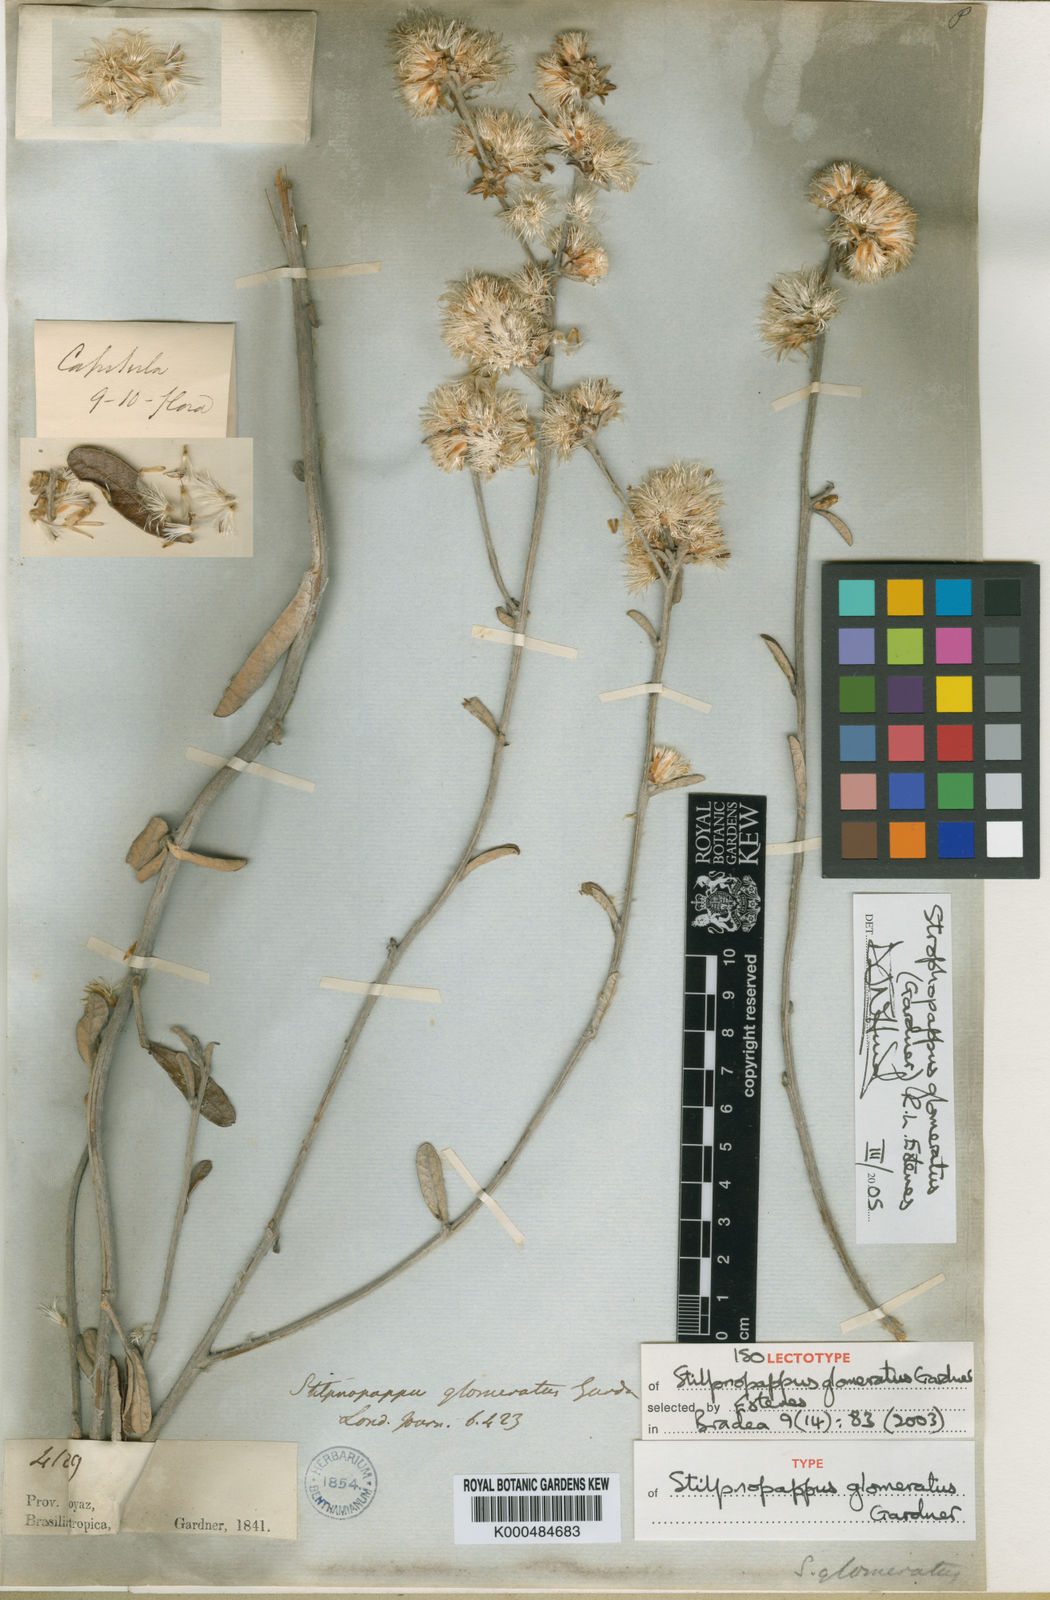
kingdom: Plantae
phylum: Tracheophyta
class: Magnoliopsida
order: Asterales
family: Asteraceae
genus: Stilpnopappus
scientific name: Stilpnopappus glomeratus
